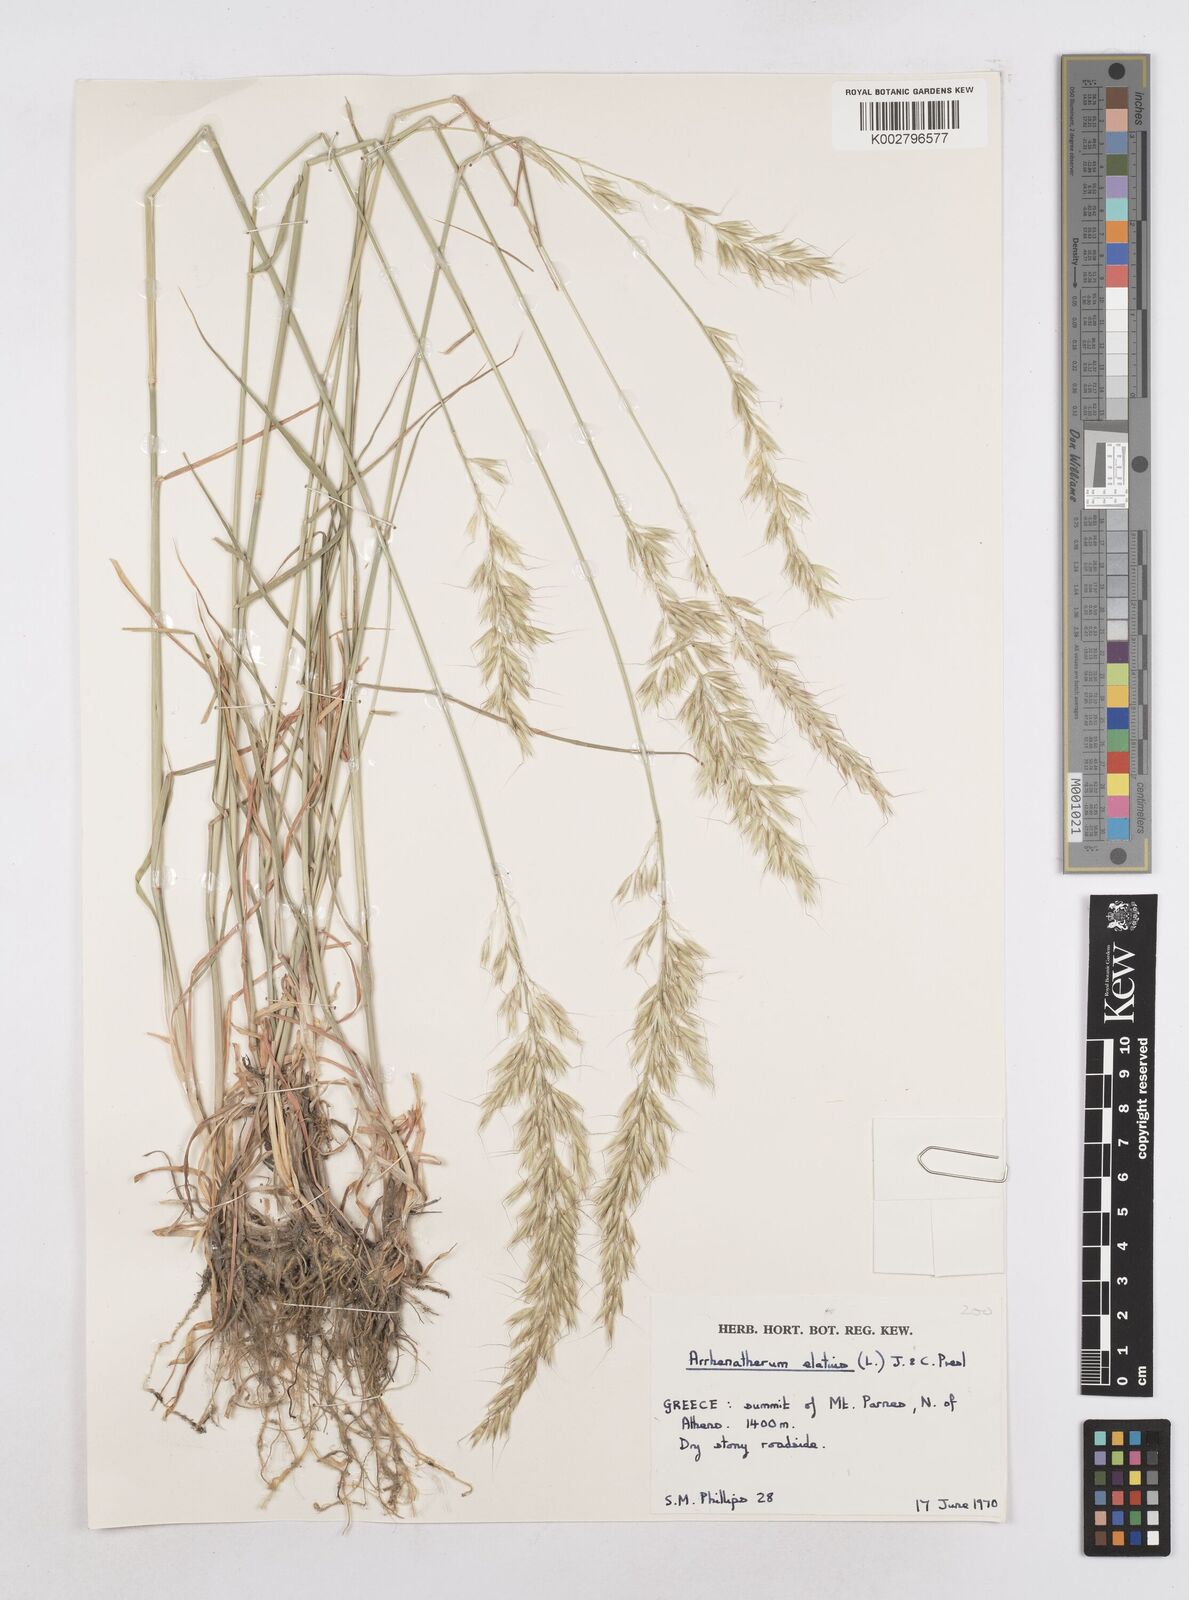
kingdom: Plantae
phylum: Tracheophyta
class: Liliopsida
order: Poales
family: Poaceae
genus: Arrhenatherum
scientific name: Arrhenatherum elatius
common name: Tall oatgrass
